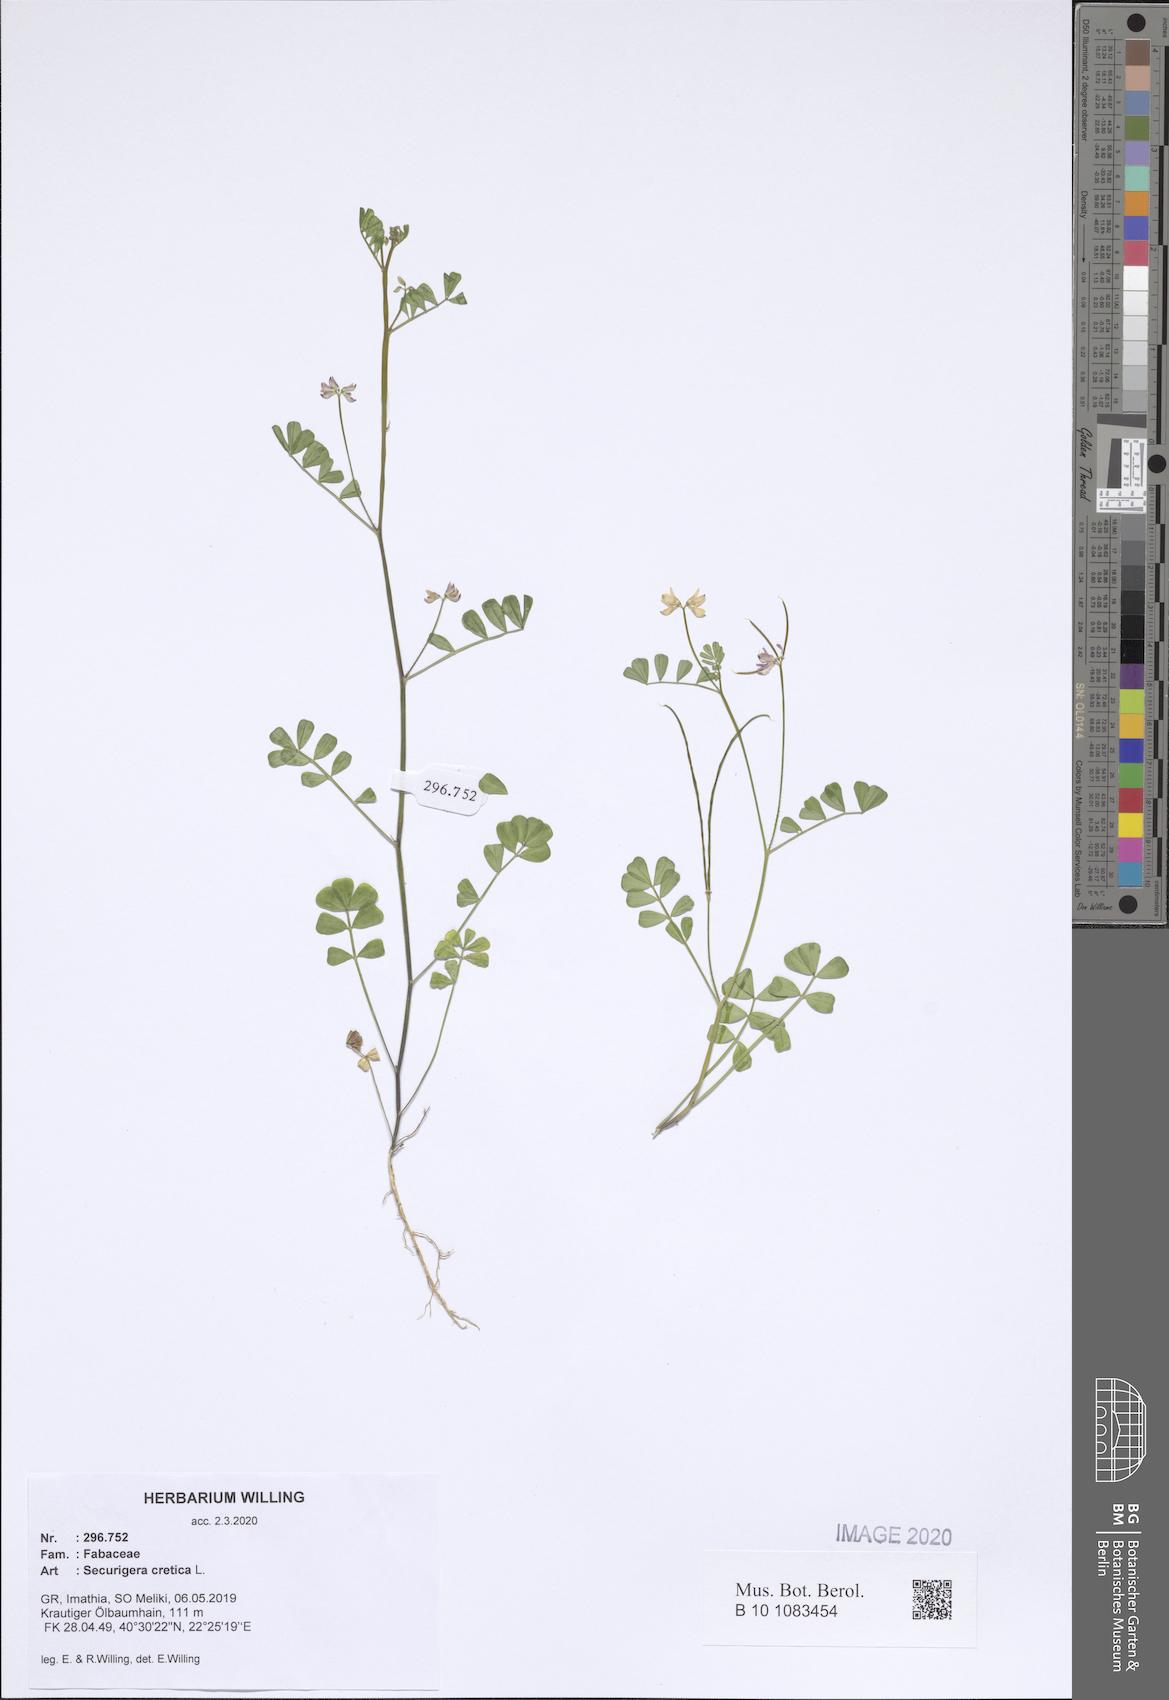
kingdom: Plantae
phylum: Tracheophyta
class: Magnoliopsida
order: Fabales
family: Fabaceae
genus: Coronilla
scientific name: Coronilla cretica
